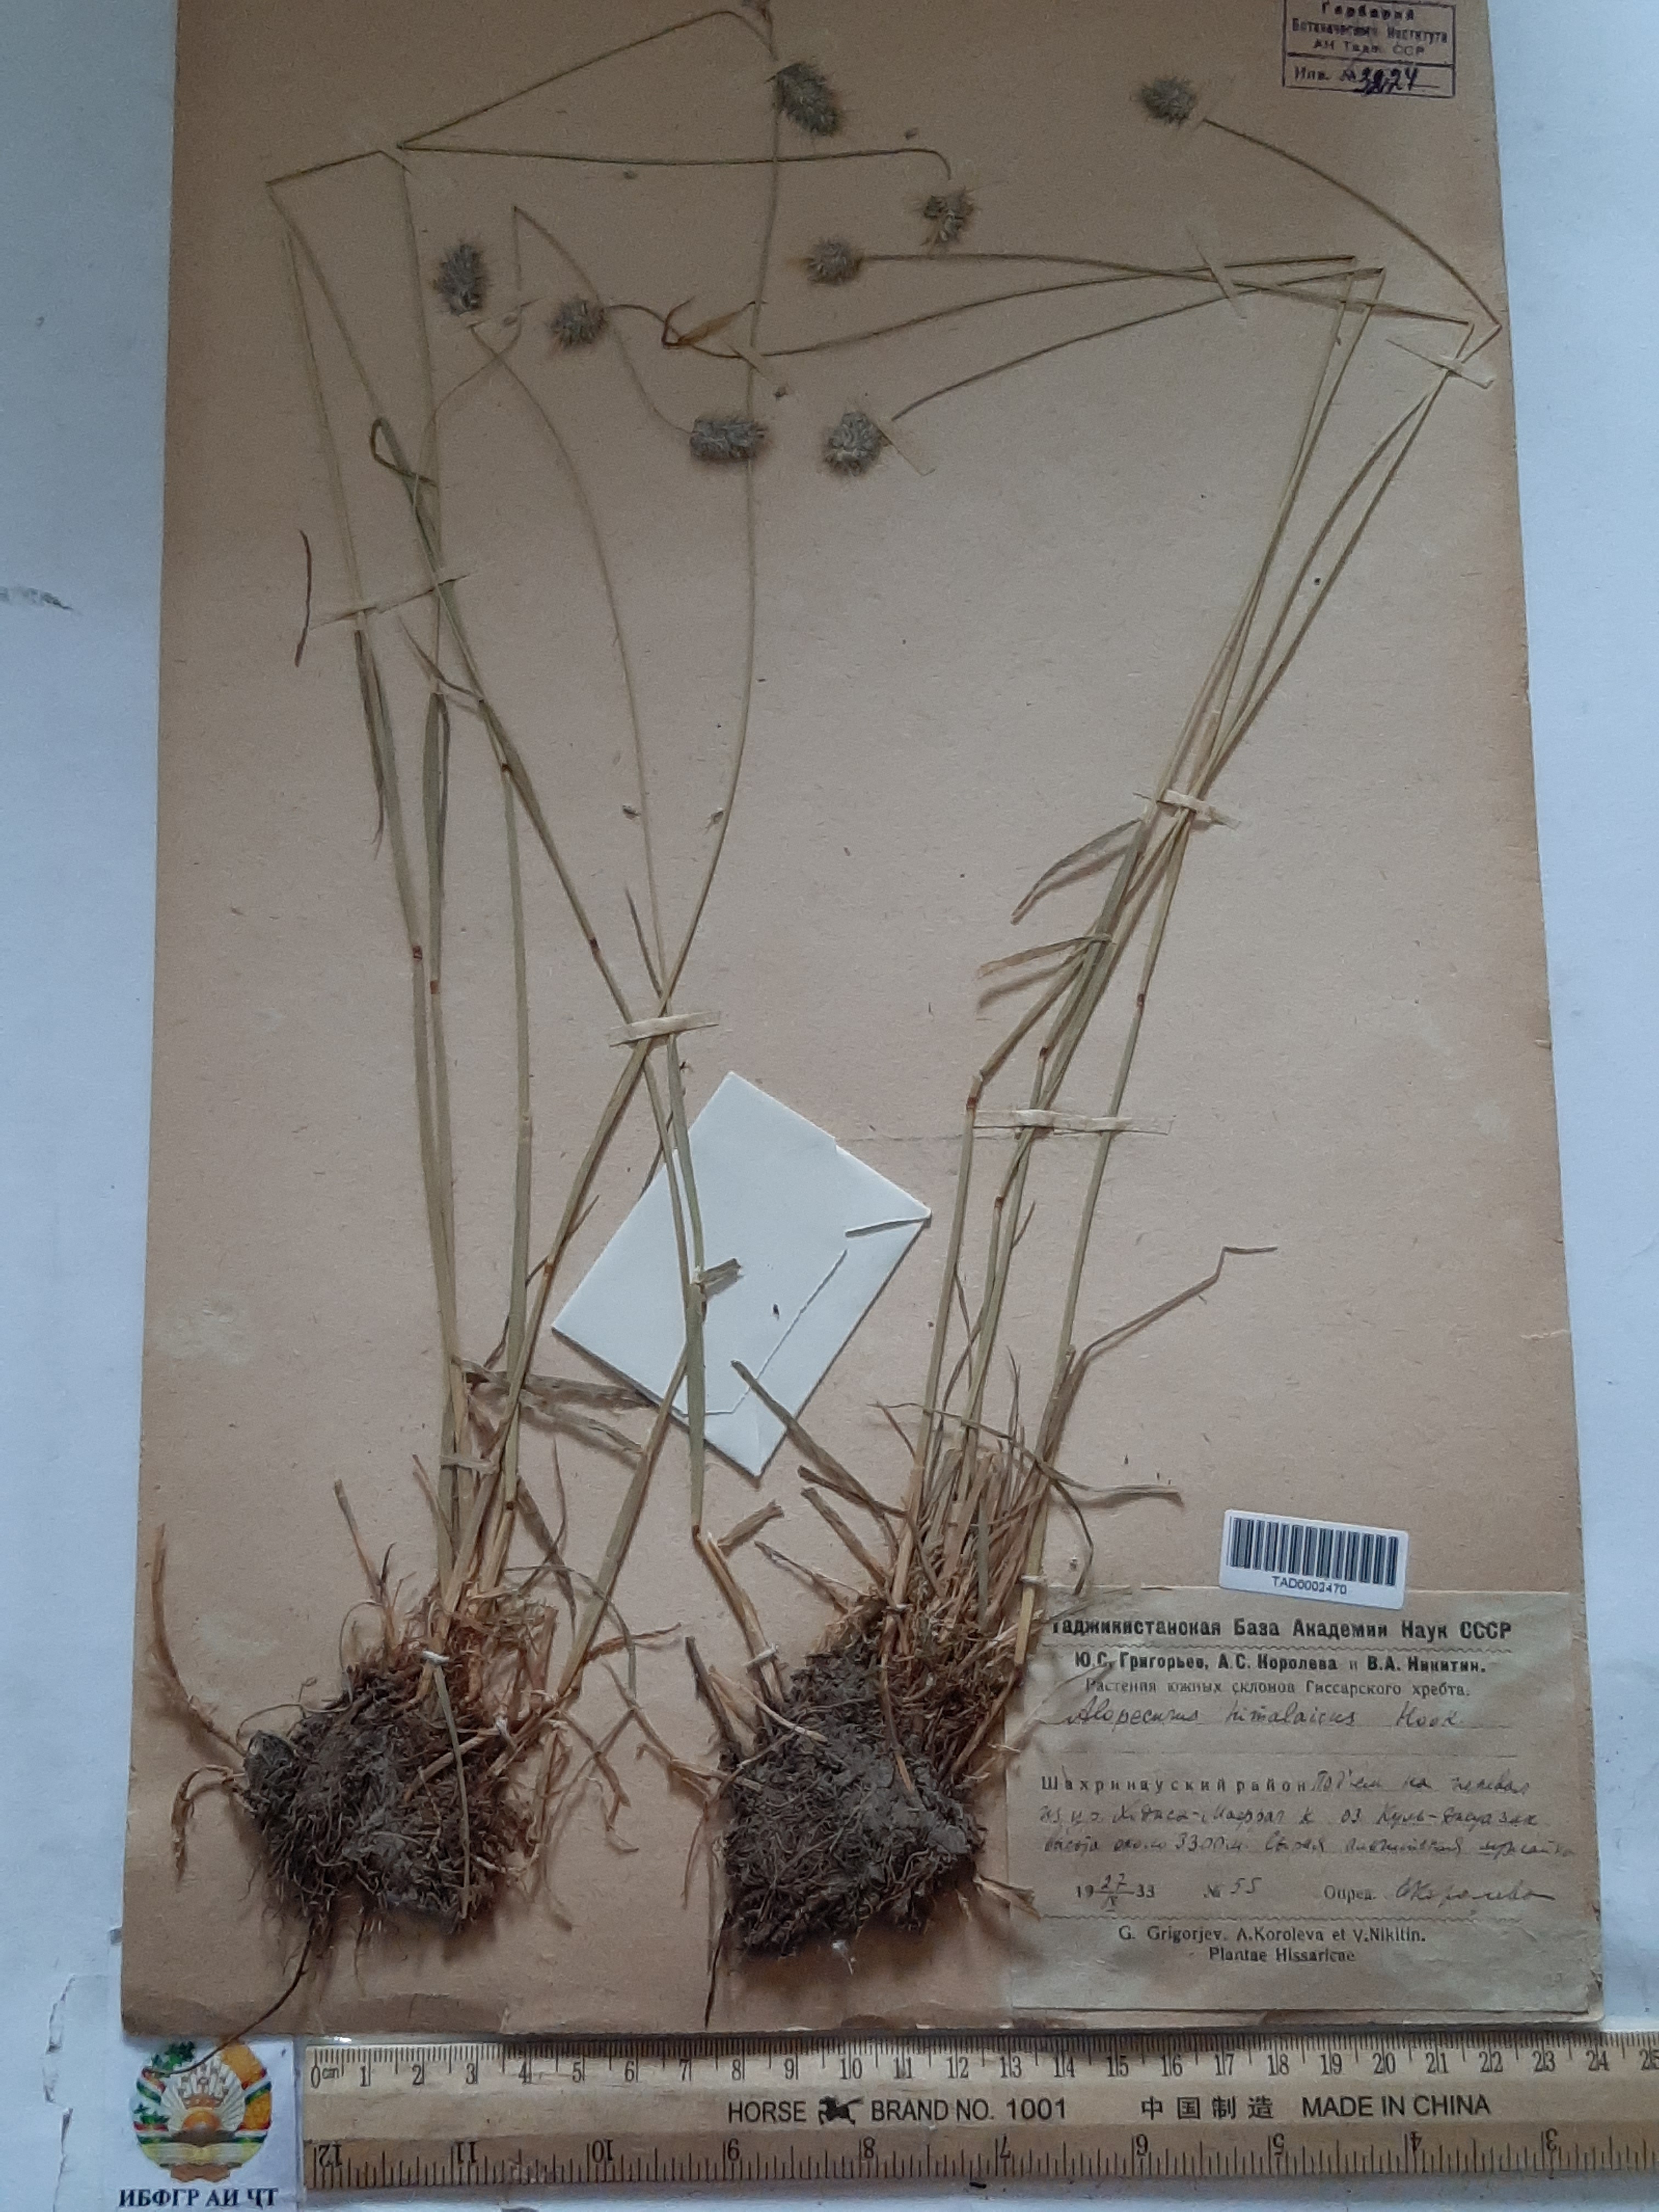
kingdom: Plantae
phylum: Tracheophyta
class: Liliopsida
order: Poales
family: Poaceae
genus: Alopecurus
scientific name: Alopecurus himalaicus
